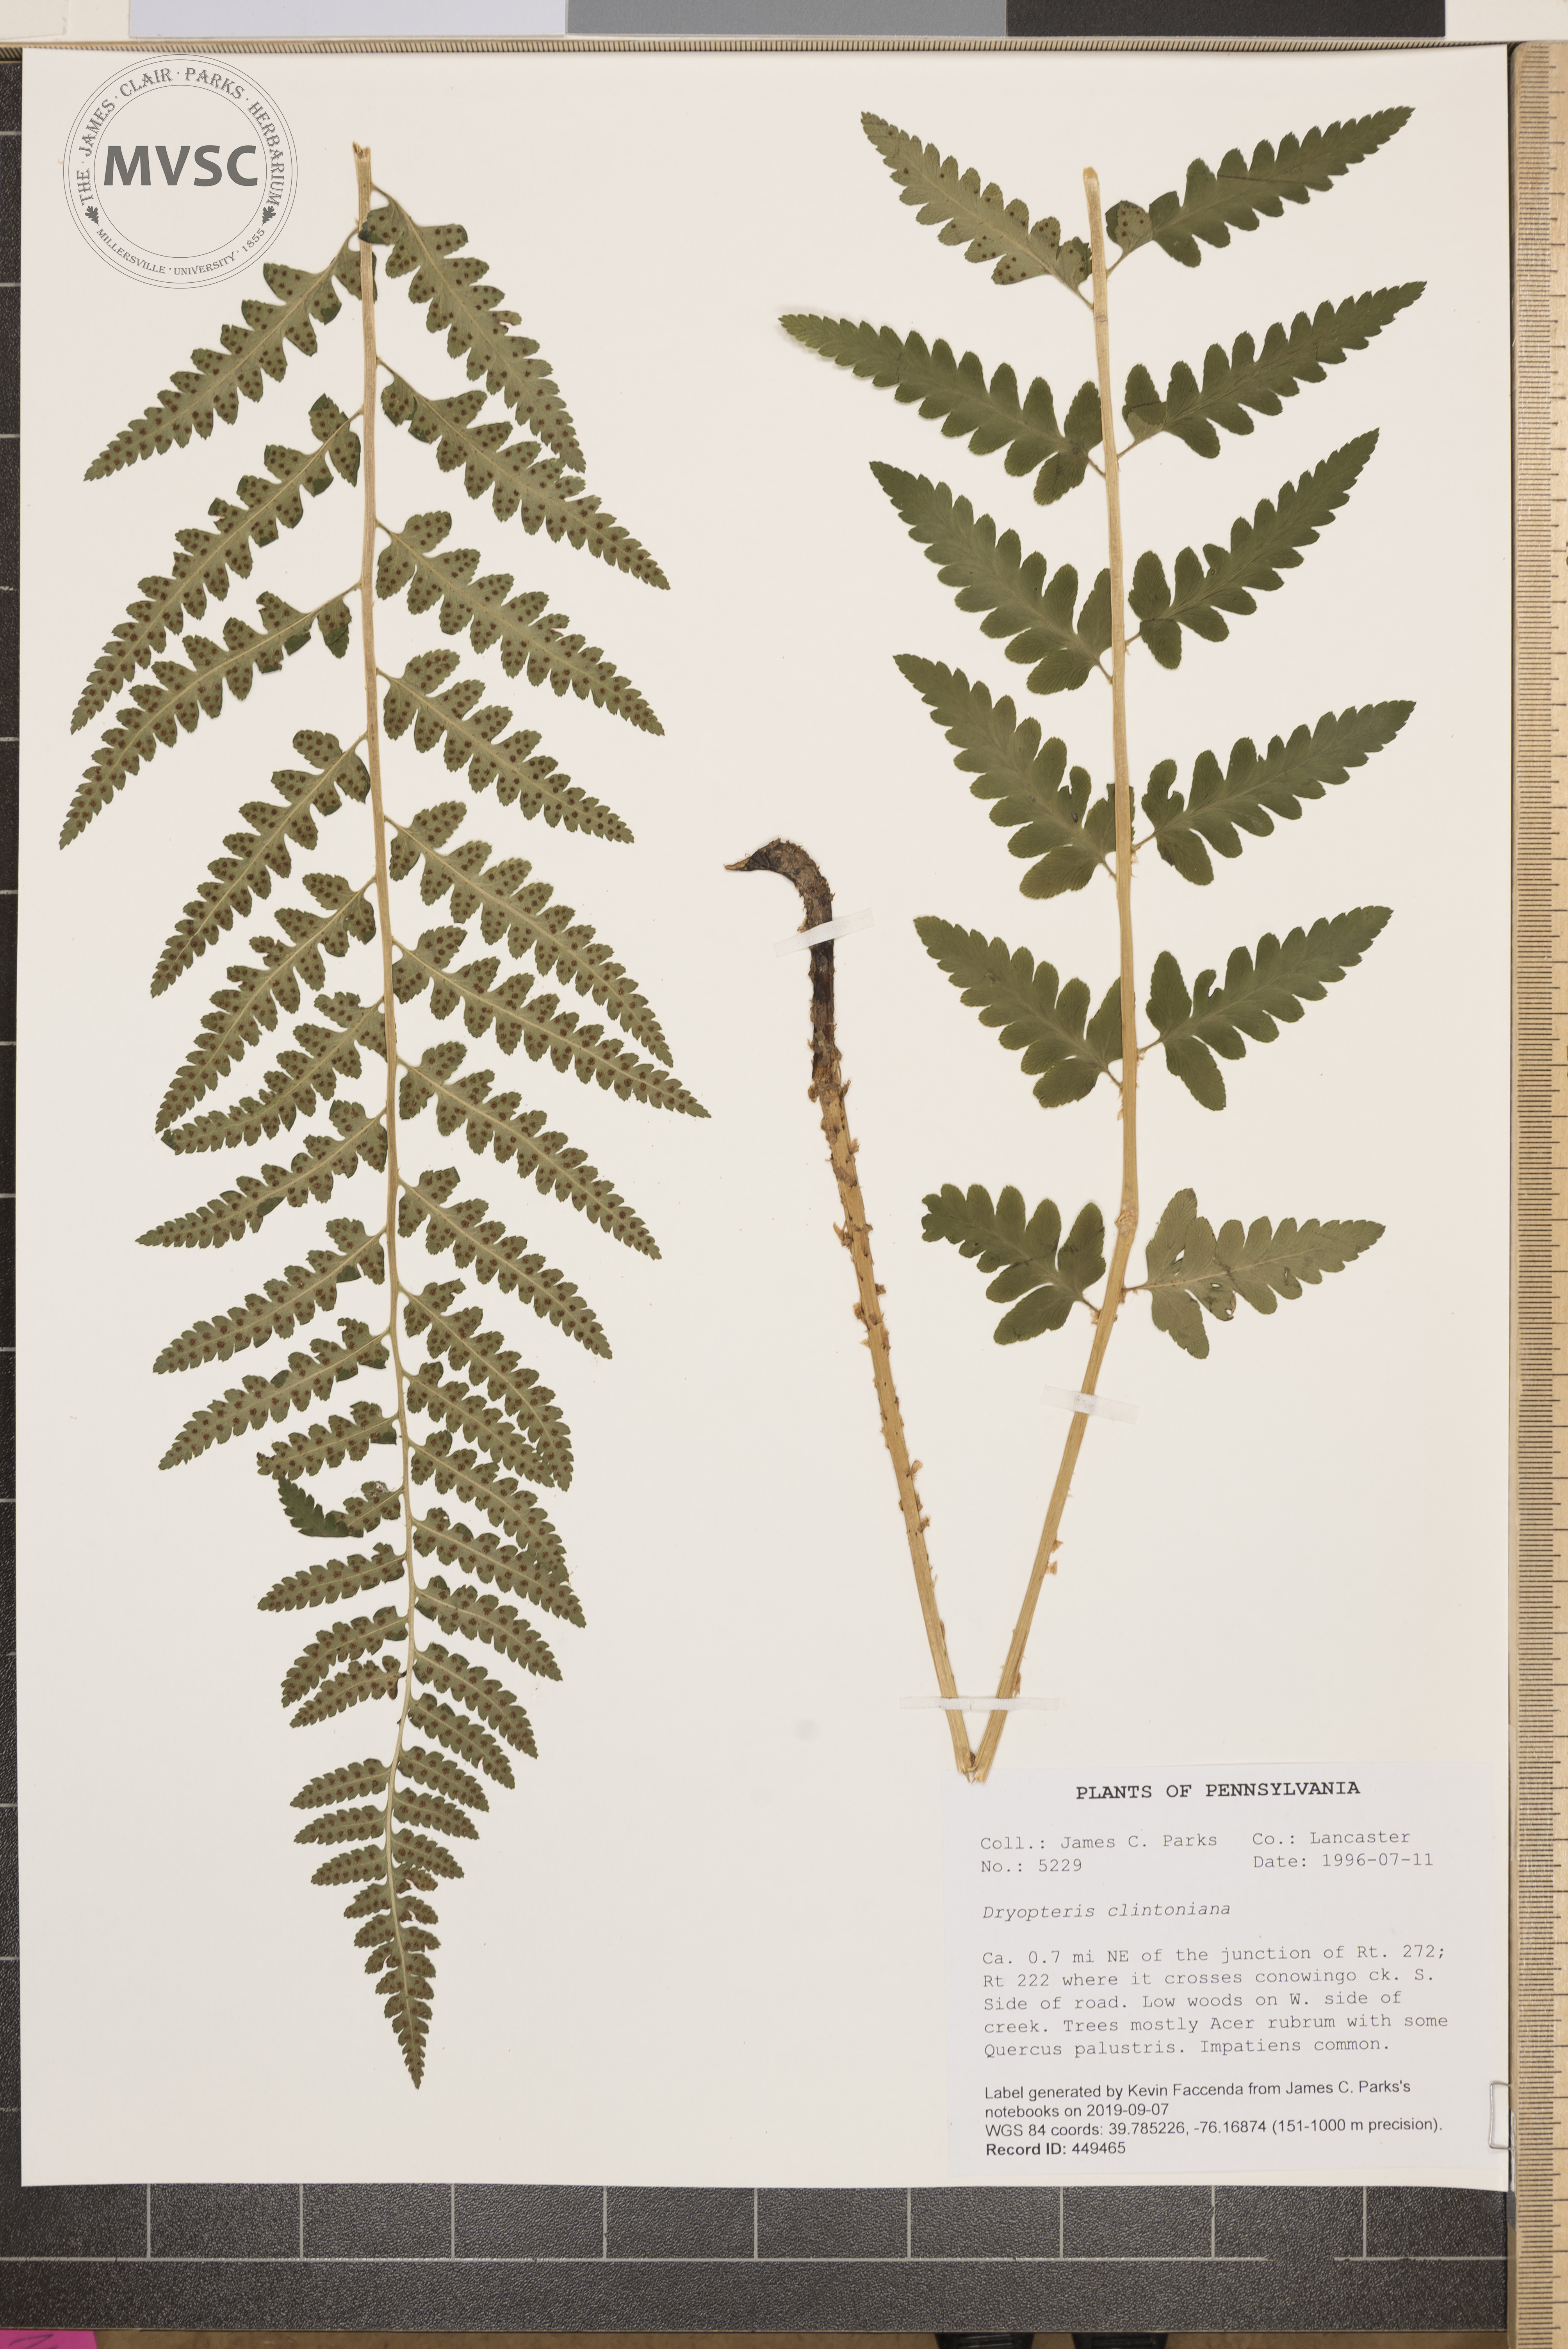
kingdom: Plantae
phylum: Tracheophyta
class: Polypodiopsida
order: Polypodiales
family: Dryopteridaceae
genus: Dryopteris
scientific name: Dryopteris clintoniana
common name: Clinton's wood fern
